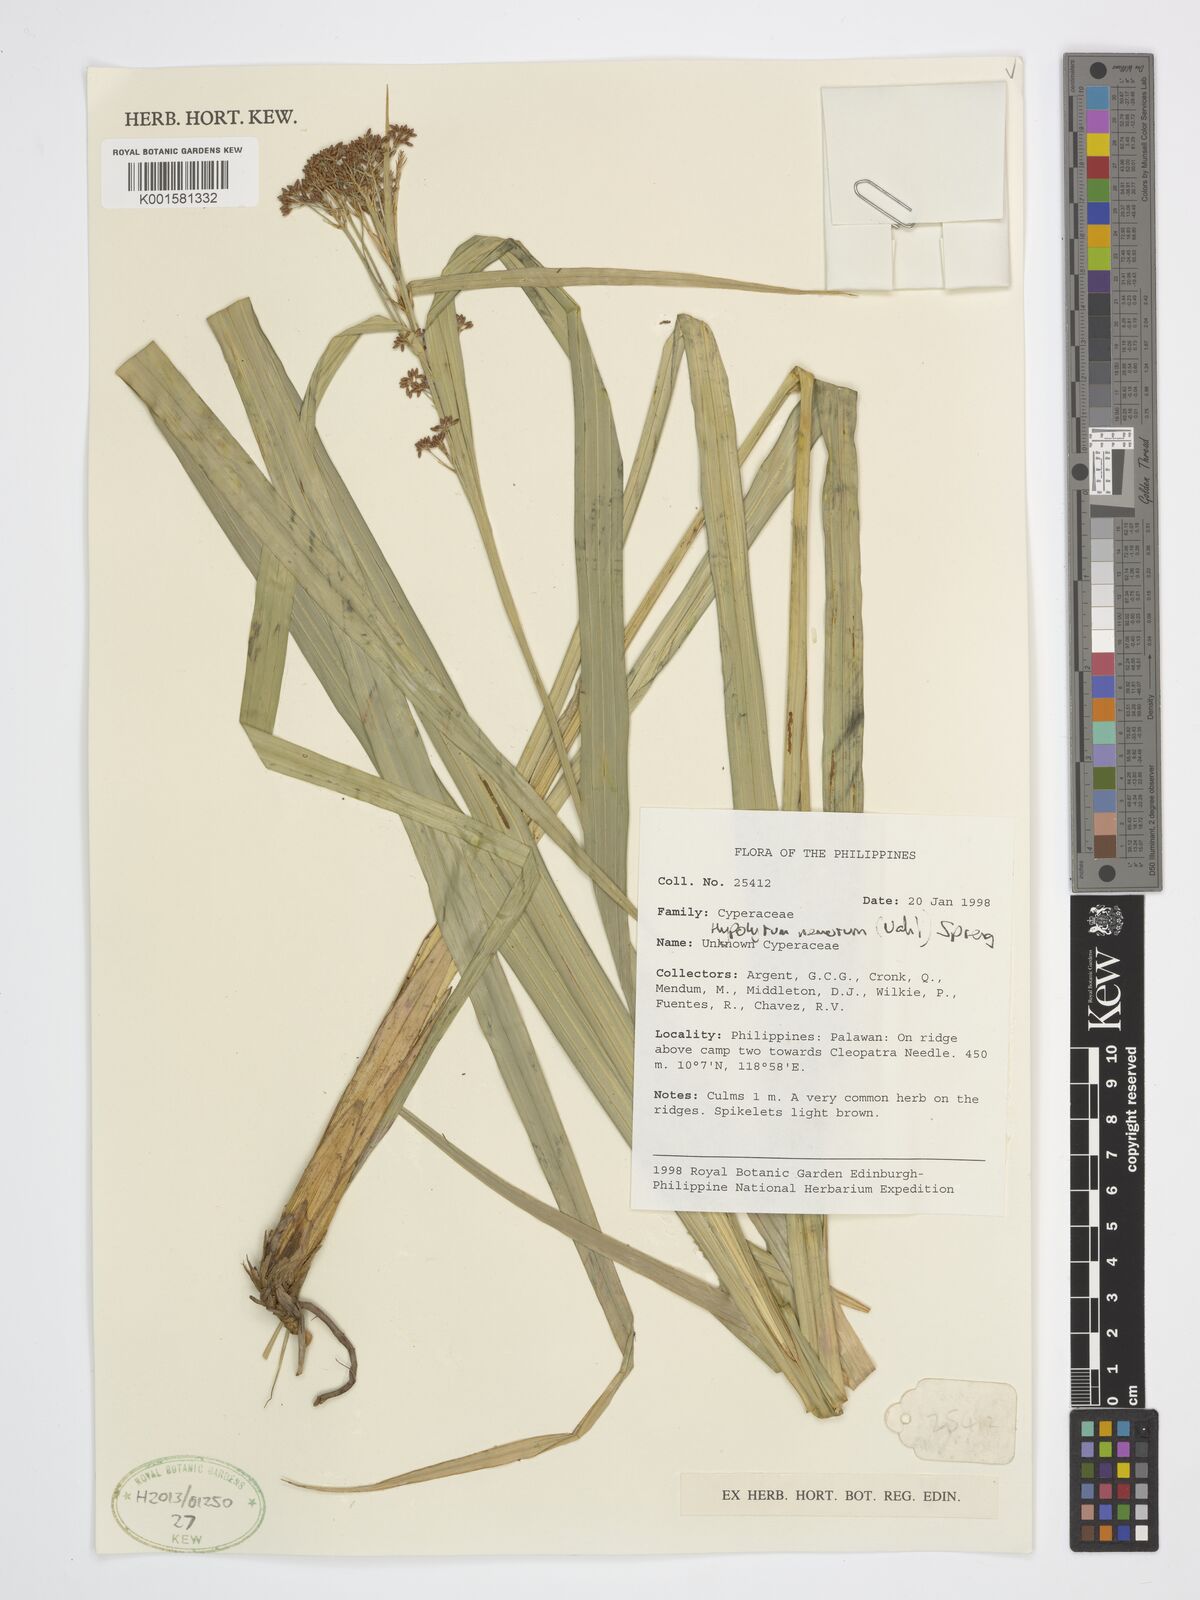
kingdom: Plantae
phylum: Tracheophyta
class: Liliopsida
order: Poales
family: Cyperaceae
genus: Hypolytrum
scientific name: Hypolytrum nemorum
